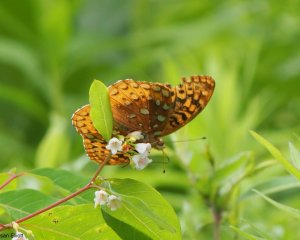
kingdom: Animalia
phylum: Arthropoda
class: Insecta
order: Lepidoptera
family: Nymphalidae
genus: Speyeria
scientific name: Speyeria cybele
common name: Great Spangled Fritillary
